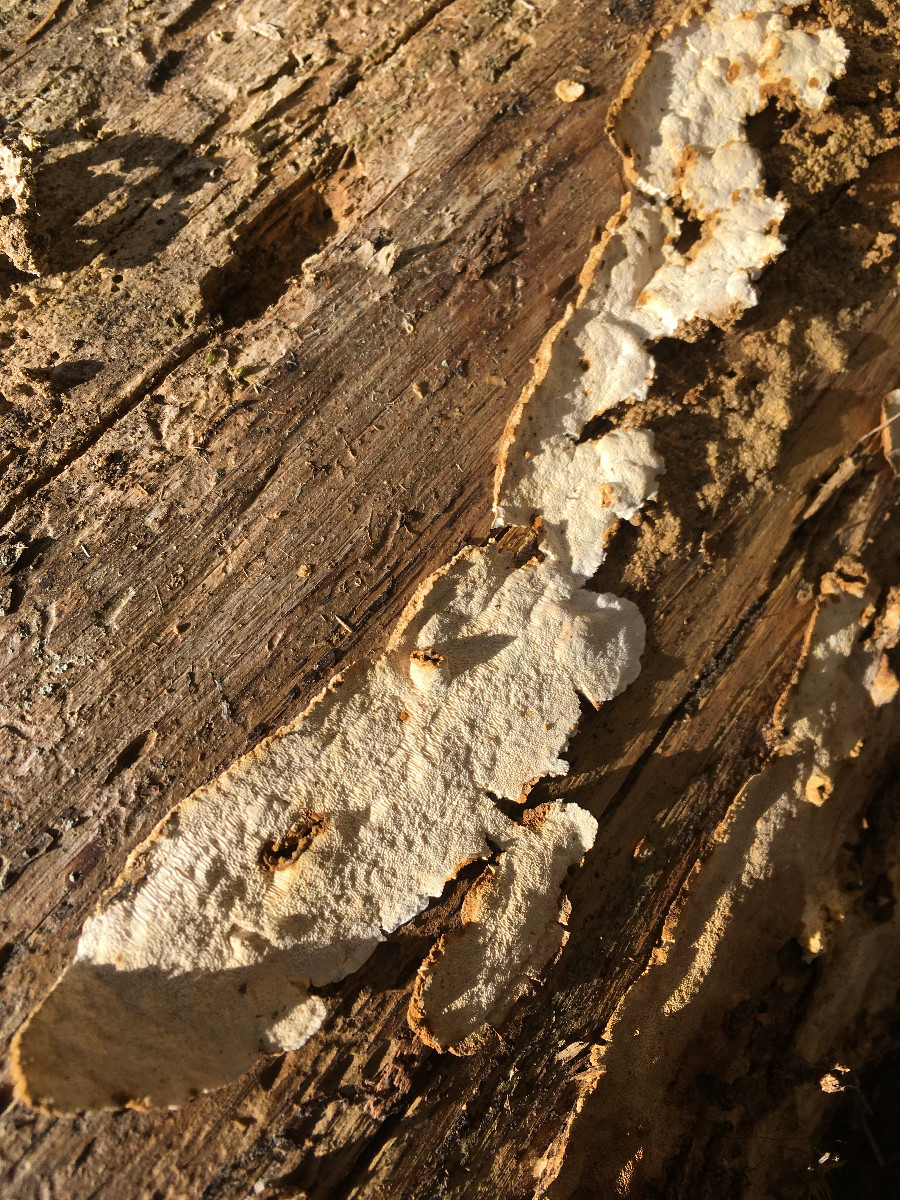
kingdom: Fungi
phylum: Basidiomycota
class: Agaricomycetes
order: Polyporales
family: Fomitopsidaceae
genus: Neoantrodia
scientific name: Neoantrodia serialis
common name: række-sejporesvamp
